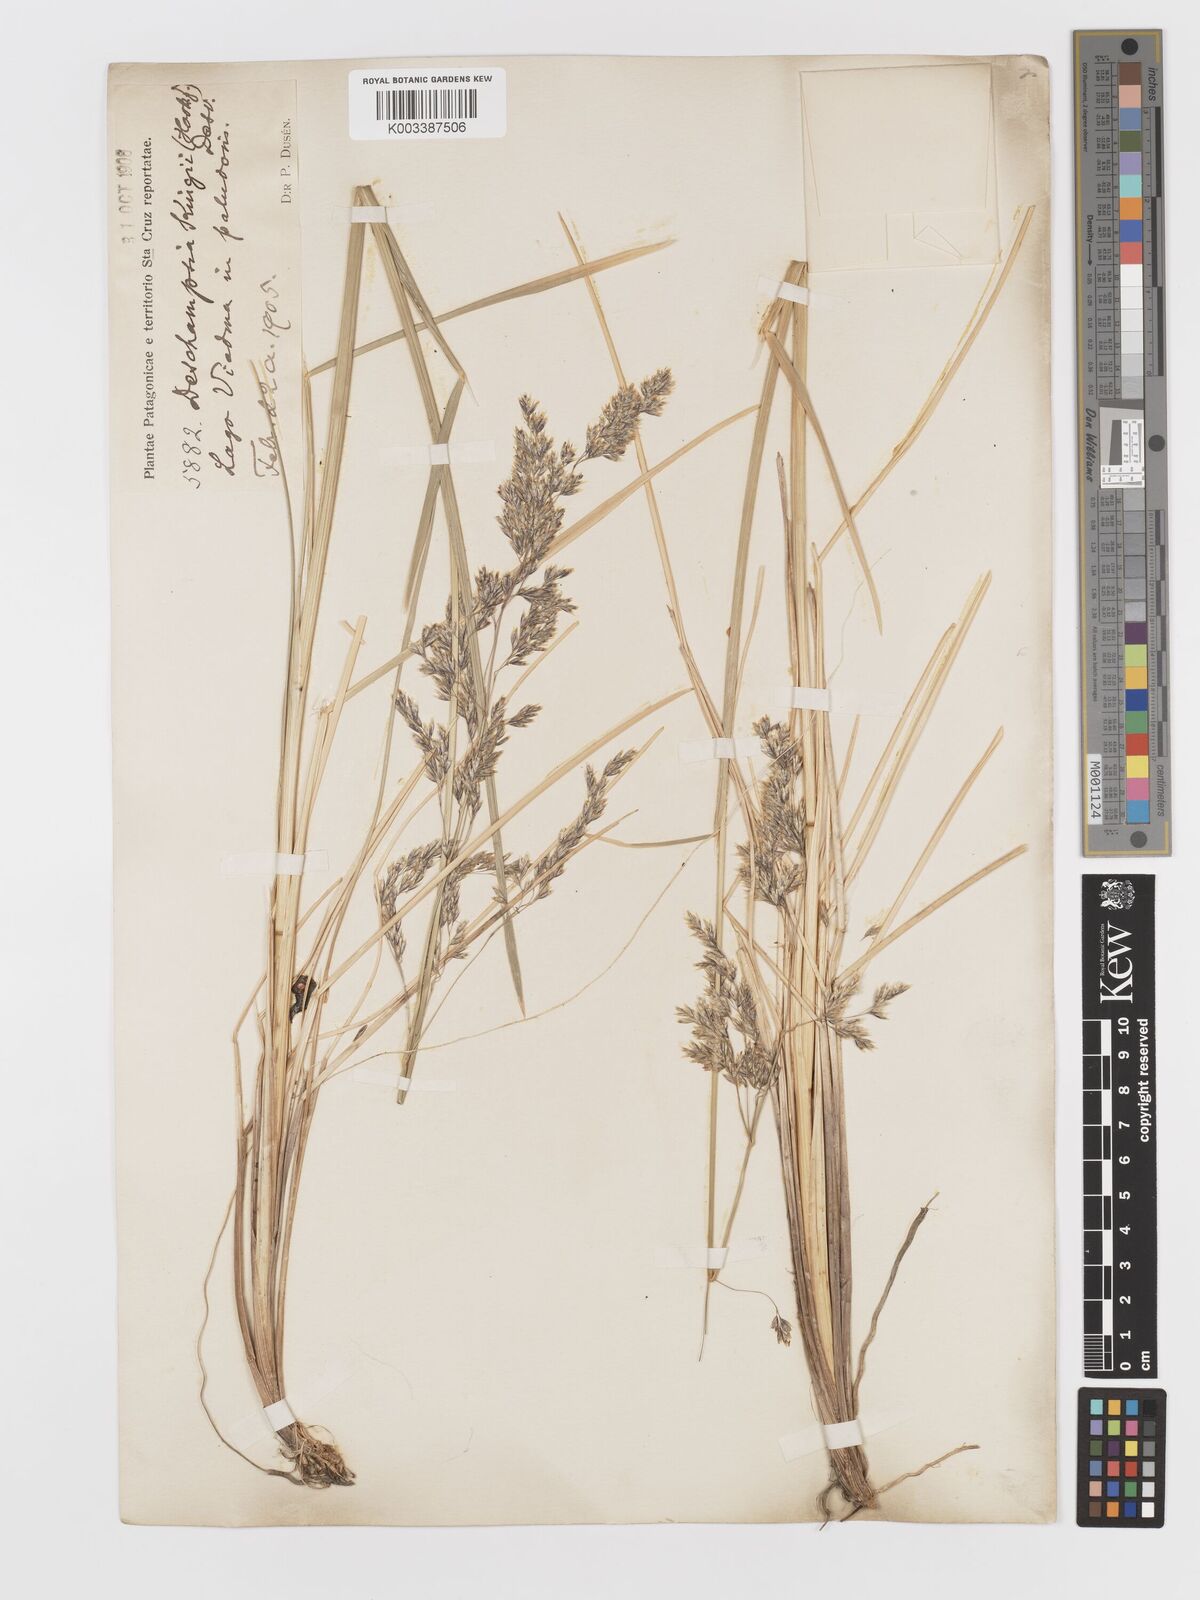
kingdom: Plantae
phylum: Tracheophyta
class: Liliopsida
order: Poales
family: Poaceae
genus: Deschampsia
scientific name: Deschampsia kingii
